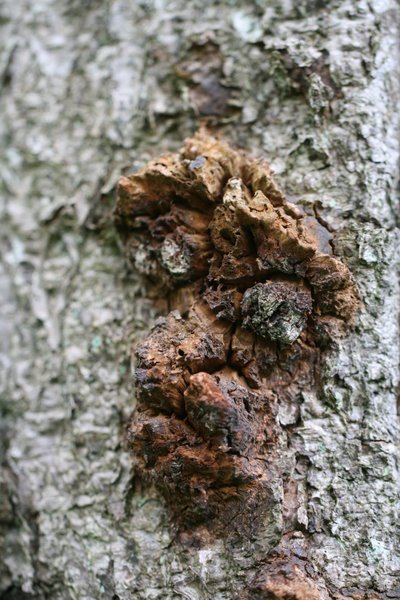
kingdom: Fungi
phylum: Basidiomycota
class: Agaricomycetes
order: Hymenochaetales
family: Hymenochaetaceae
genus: Xanthoporia
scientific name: Xanthoporia radiata
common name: elle-spejlporesvamp
